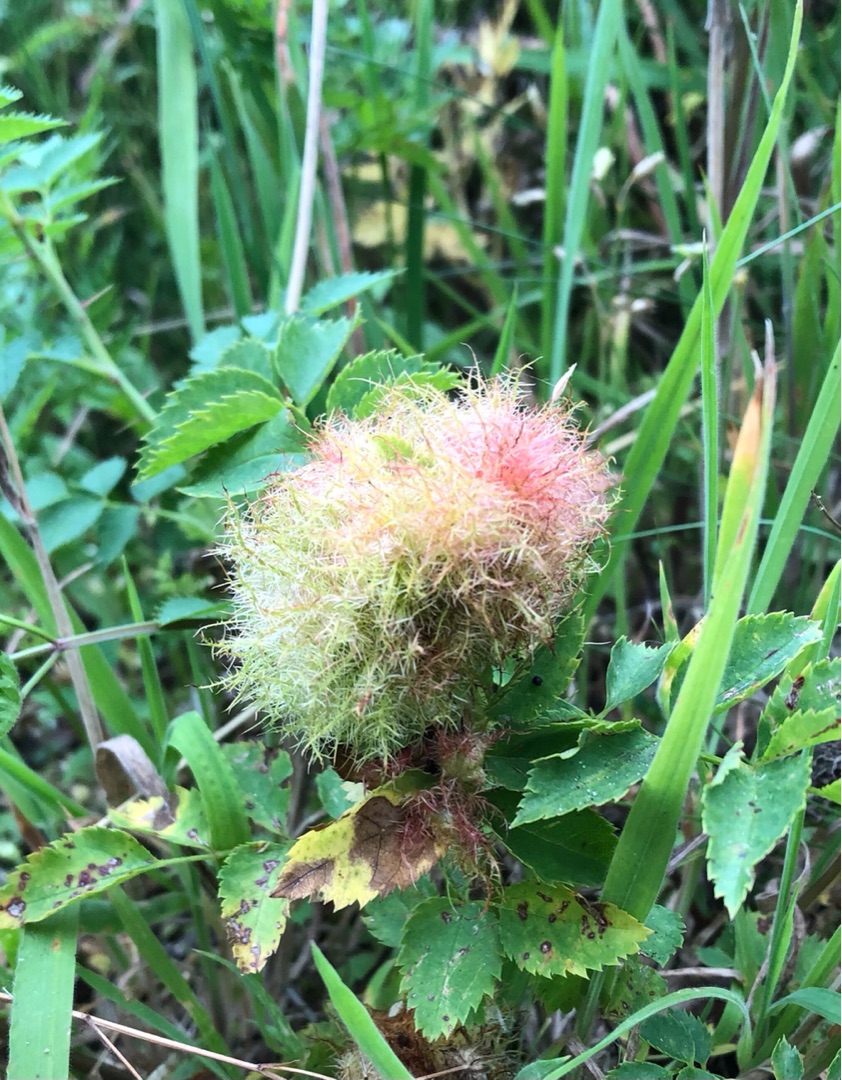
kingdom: Animalia
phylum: Arthropoda
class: Insecta
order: Hymenoptera
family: Cynipidae
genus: Diplolepis
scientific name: Diplolepis rosae
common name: Bedeguargalhveps
